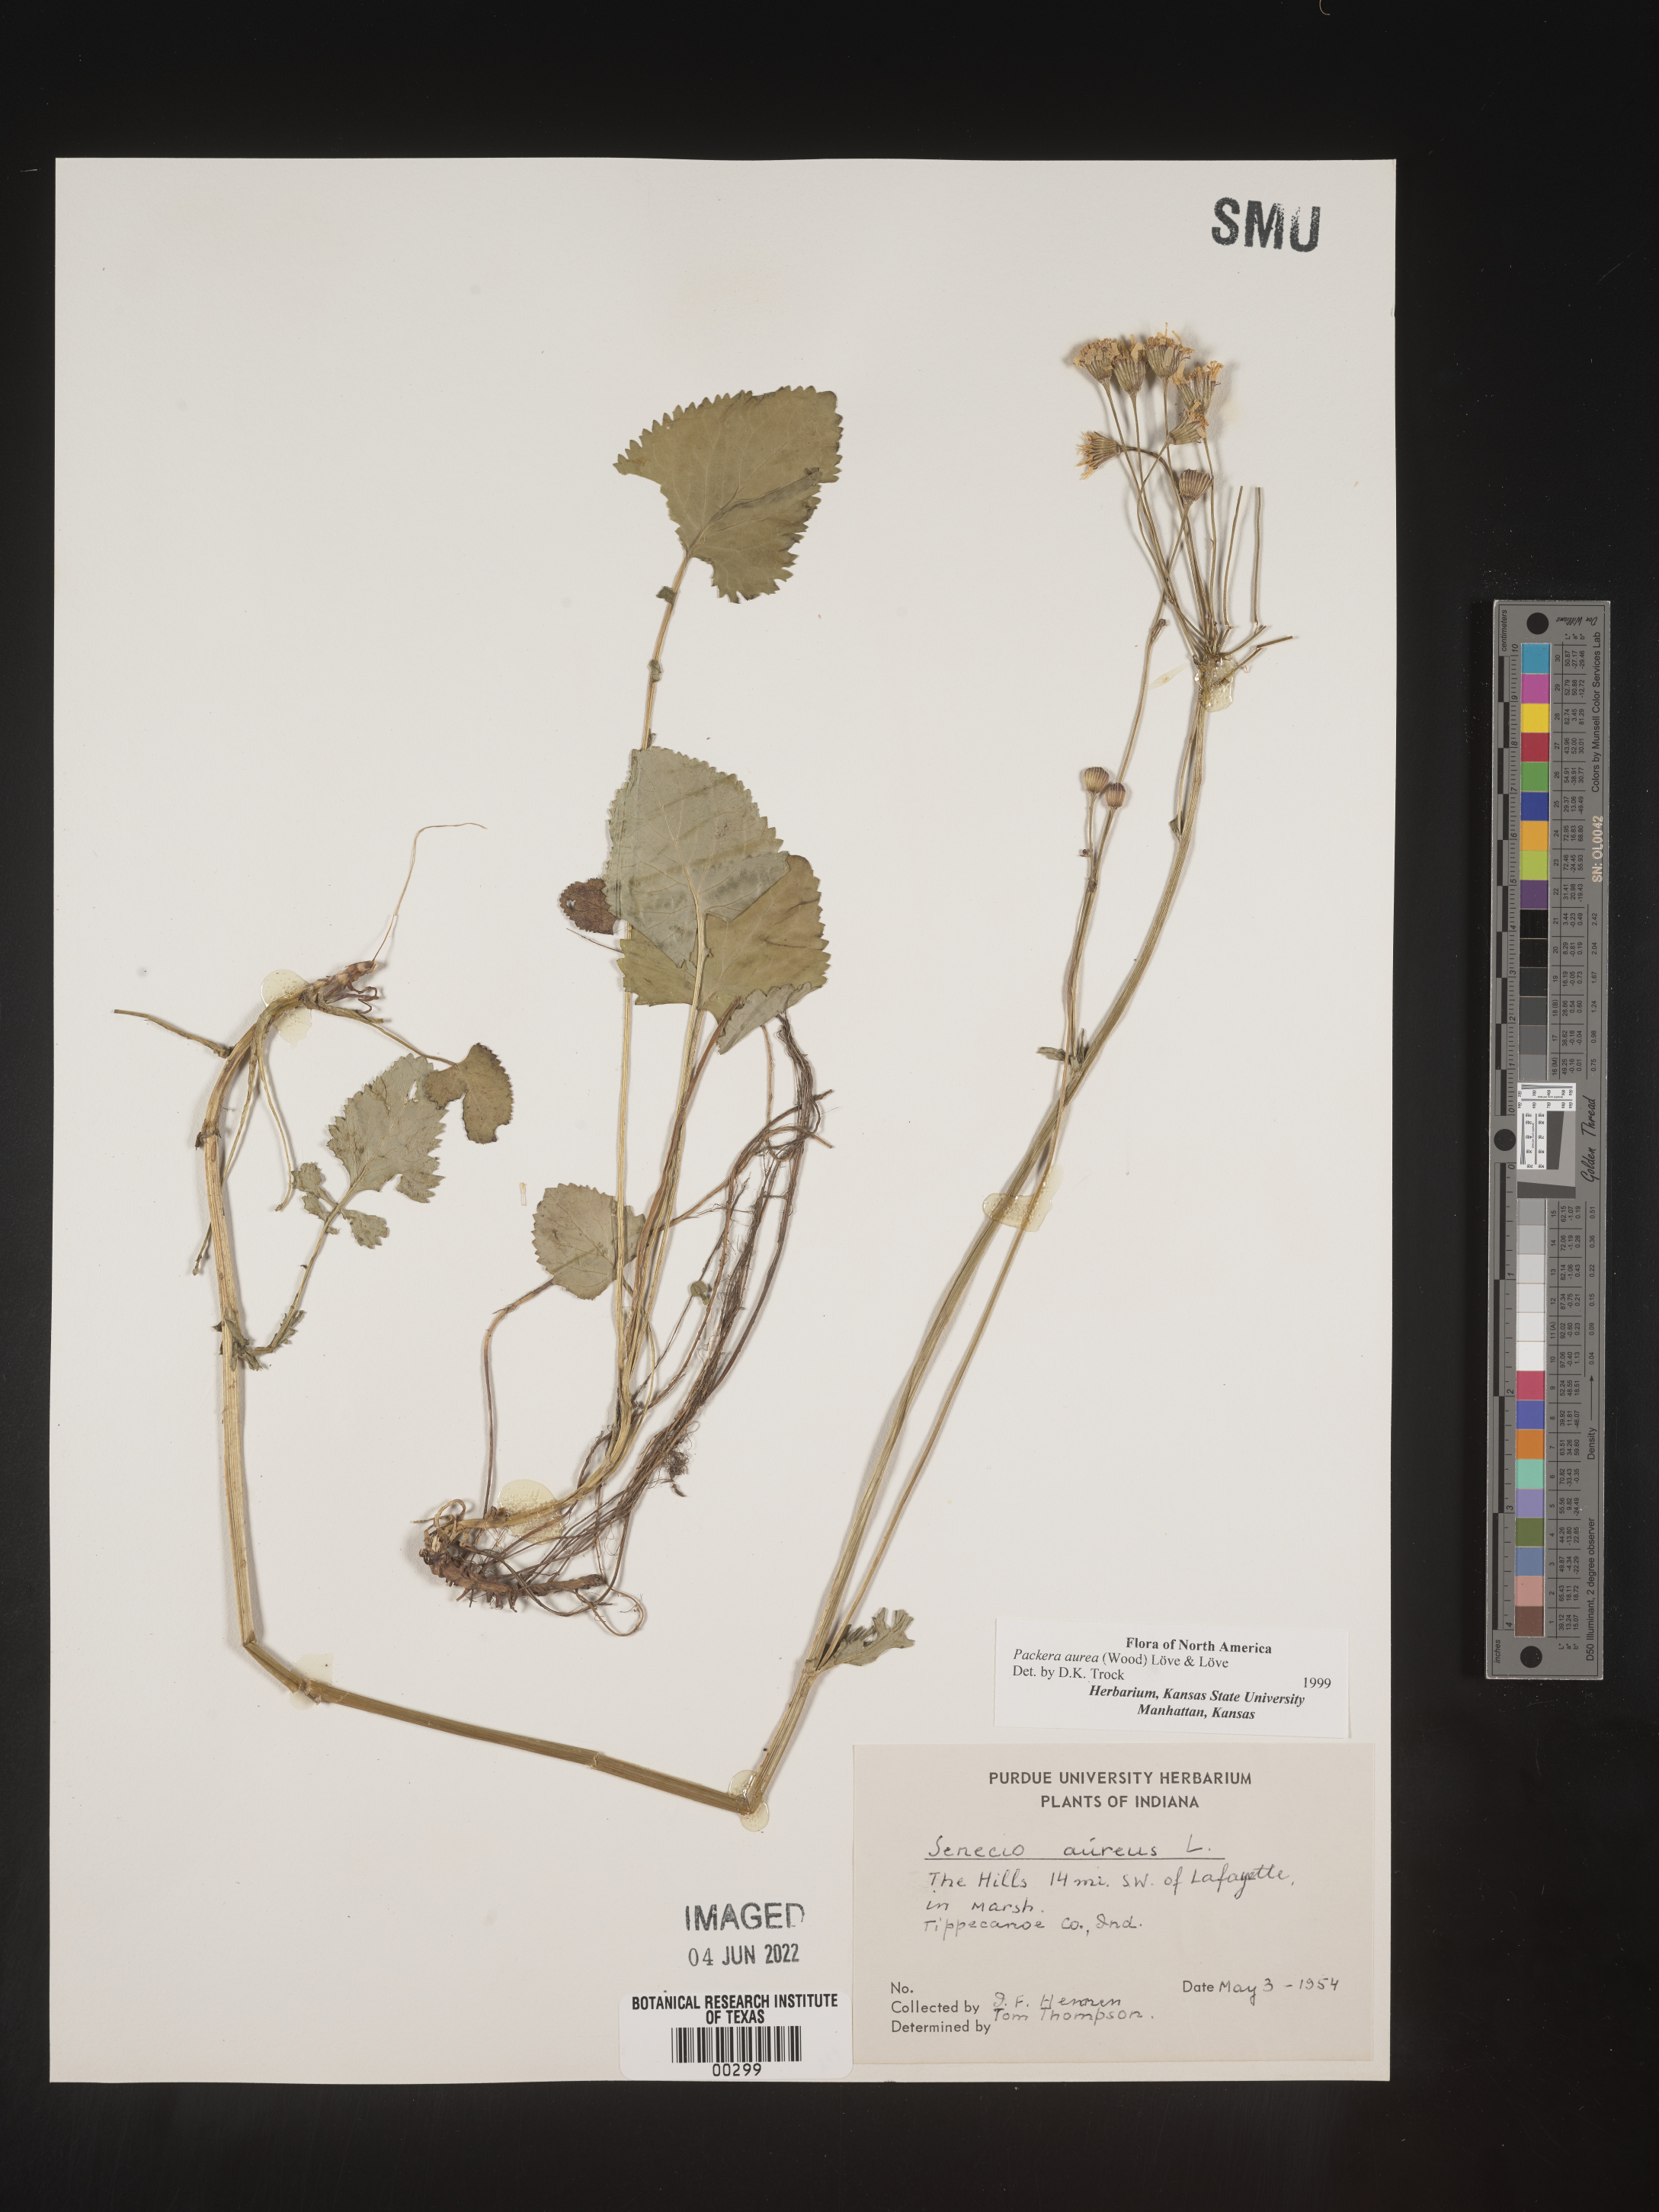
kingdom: Plantae
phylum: Tracheophyta
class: Magnoliopsida
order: Asterales
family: Asteraceae
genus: Packera
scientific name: Packera aurea
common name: Golden groundsel
